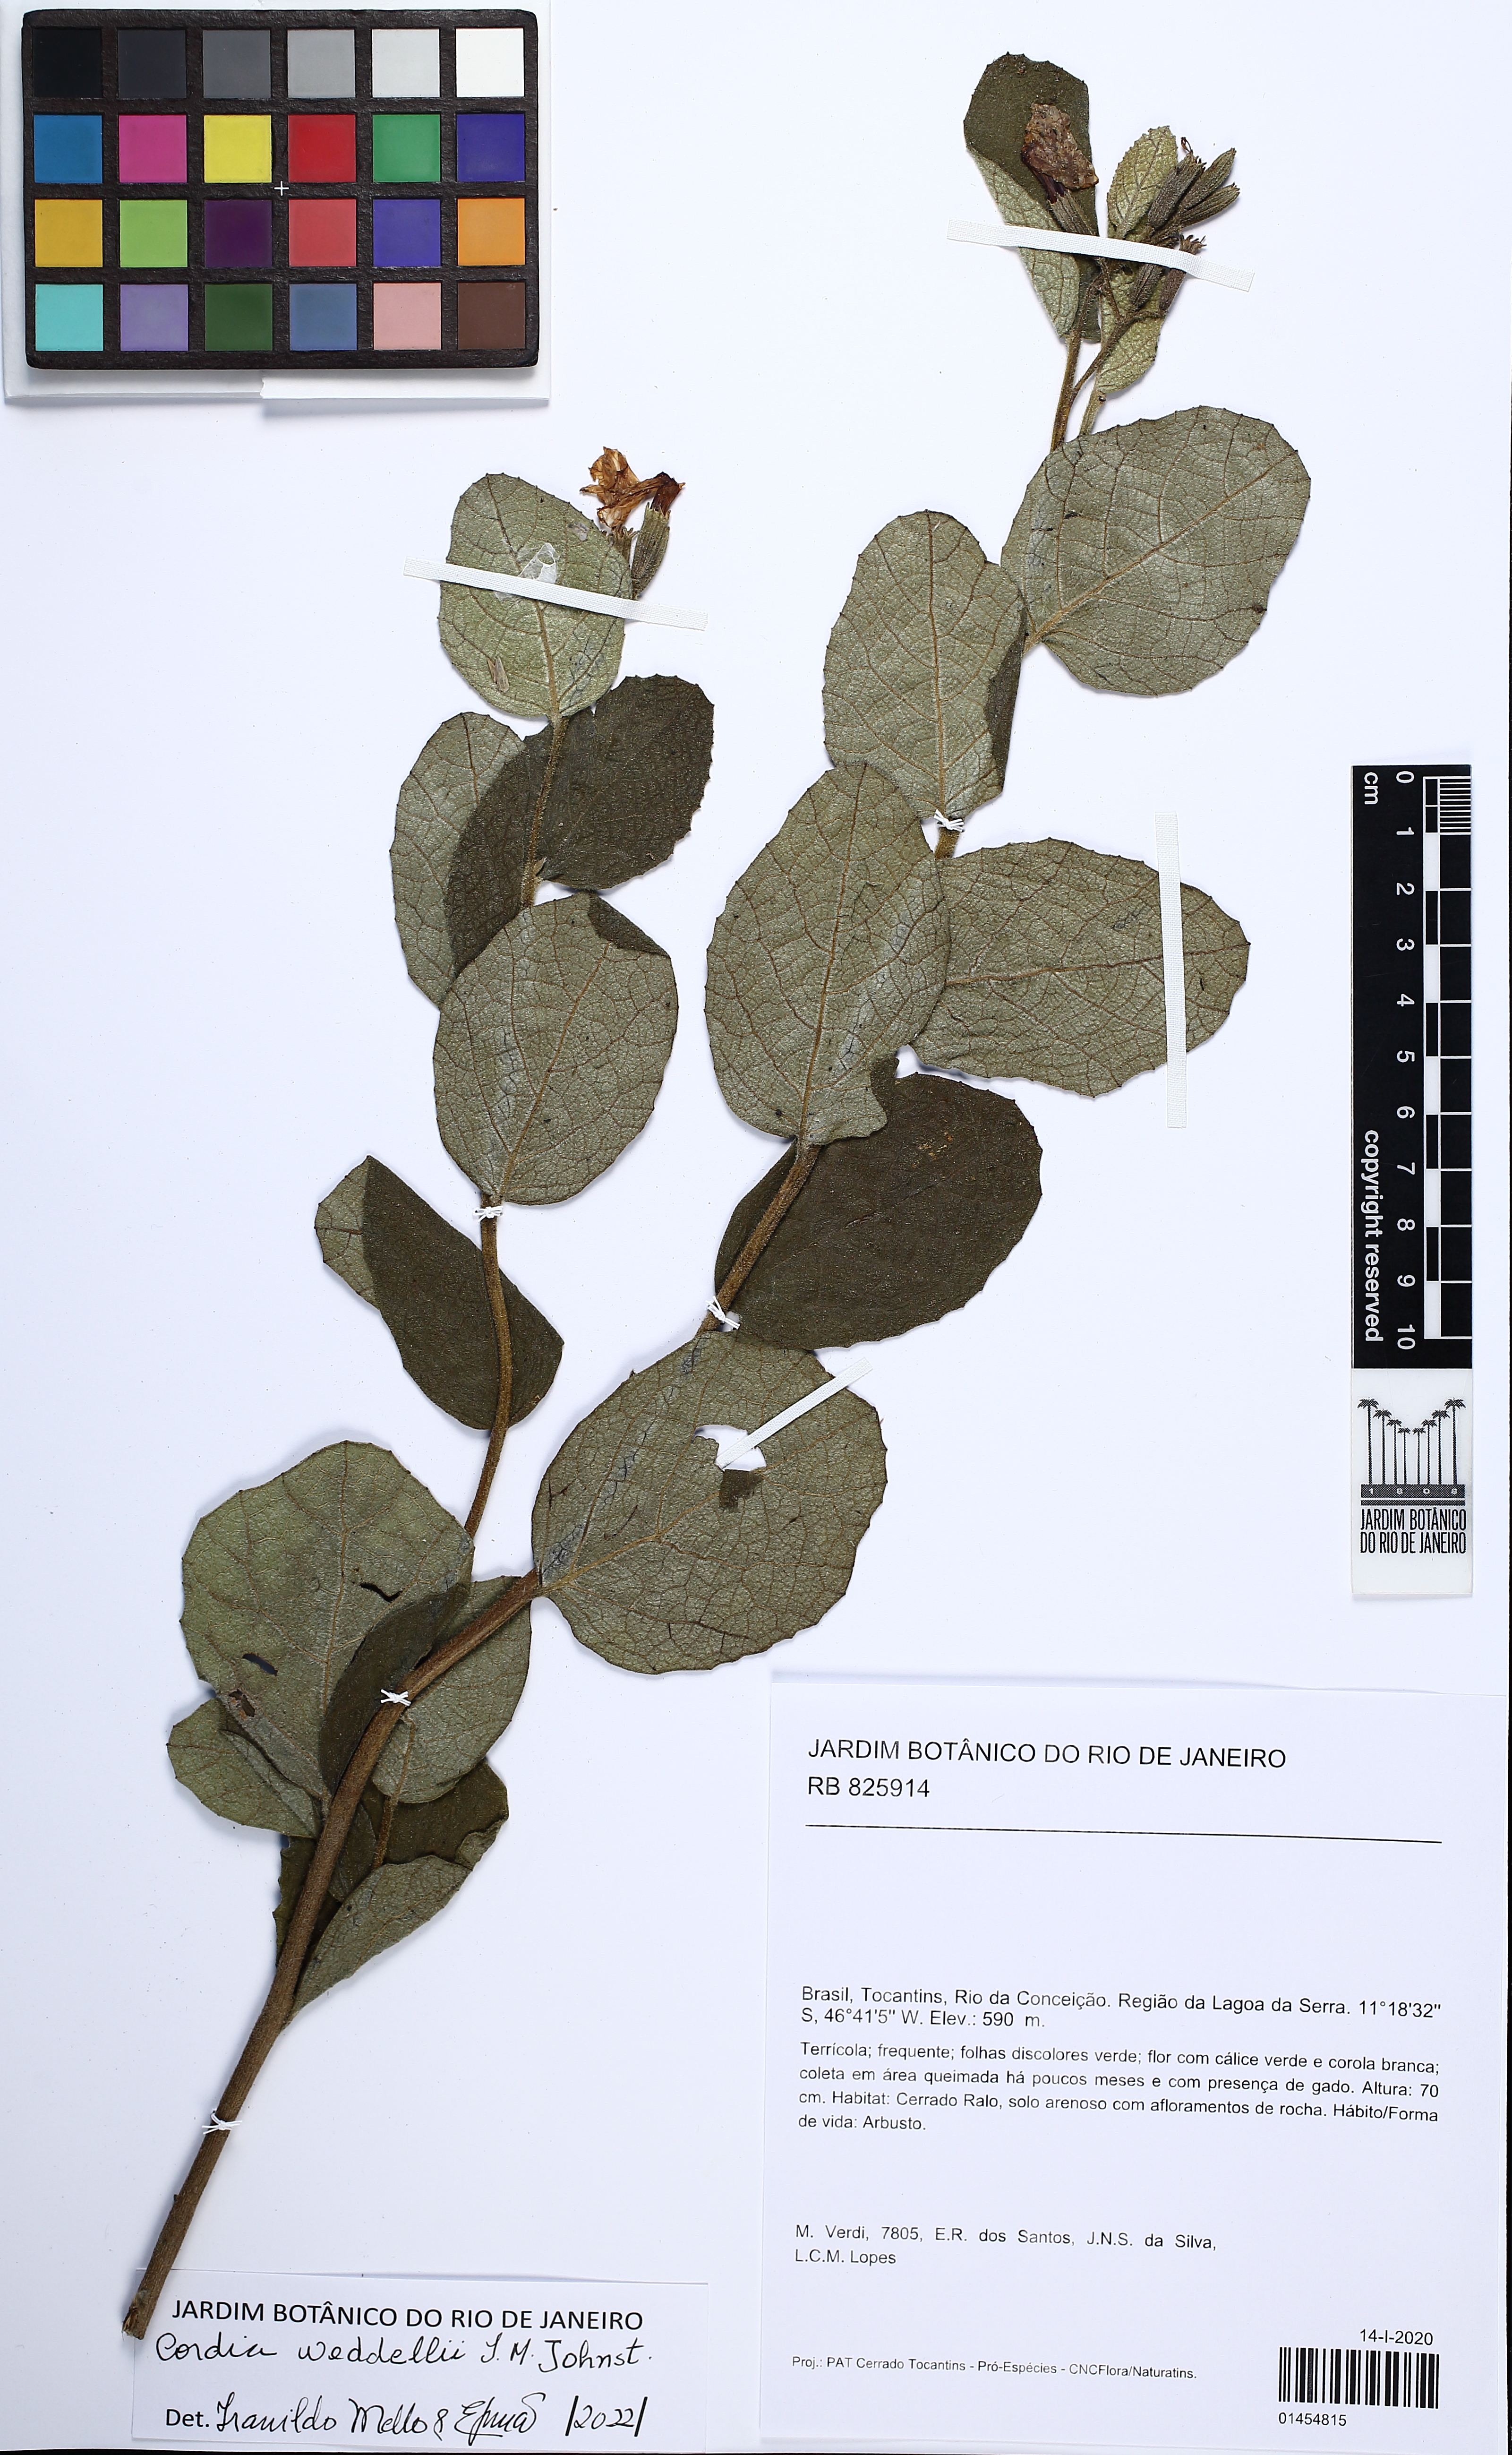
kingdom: Plantae
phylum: Tracheophyta
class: Magnoliopsida
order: Boraginales
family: Cordiaceae
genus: Cordia
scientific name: Cordia weddellii
